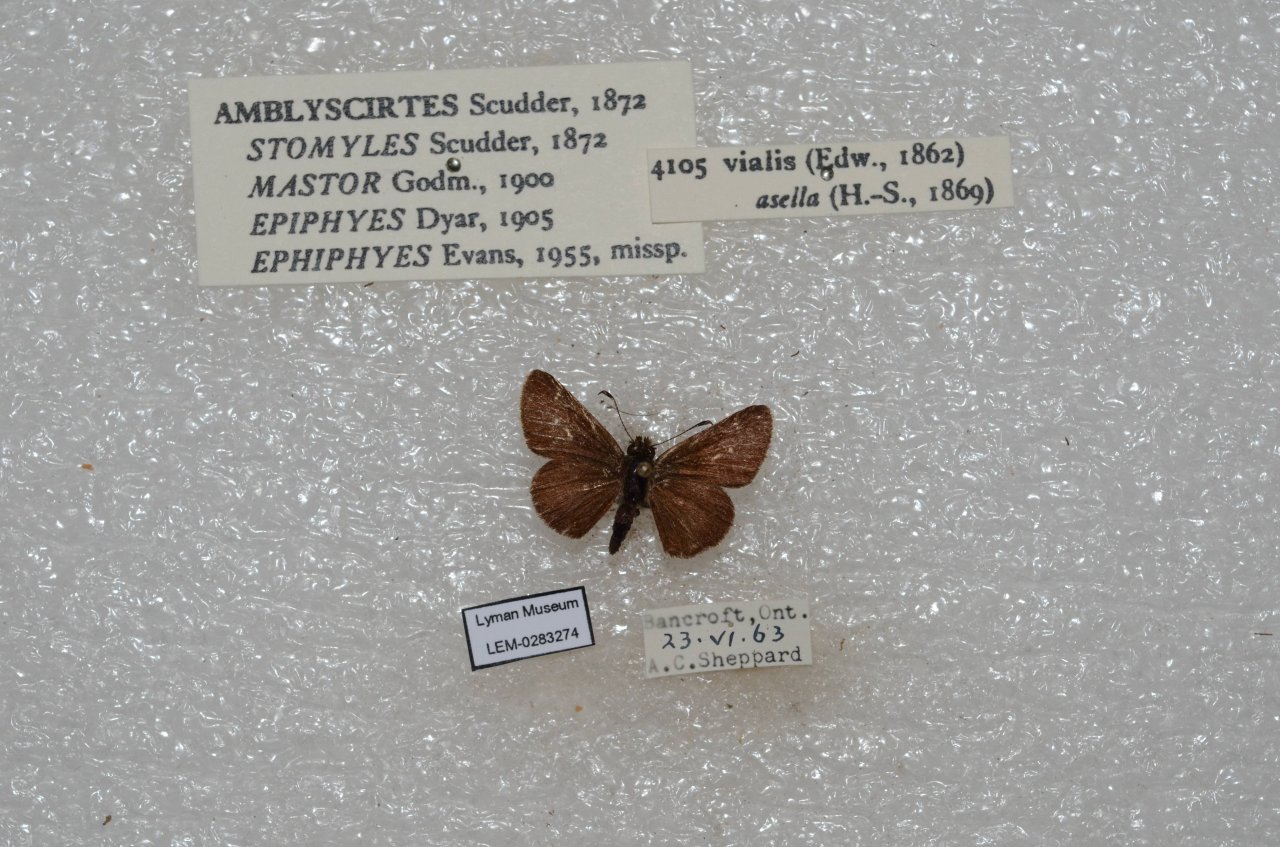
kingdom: Animalia
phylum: Arthropoda
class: Insecta
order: Lepidoptera
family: Hesperiidae
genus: Mastor
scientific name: Mastor vialis
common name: Common Roadside-Skipper
